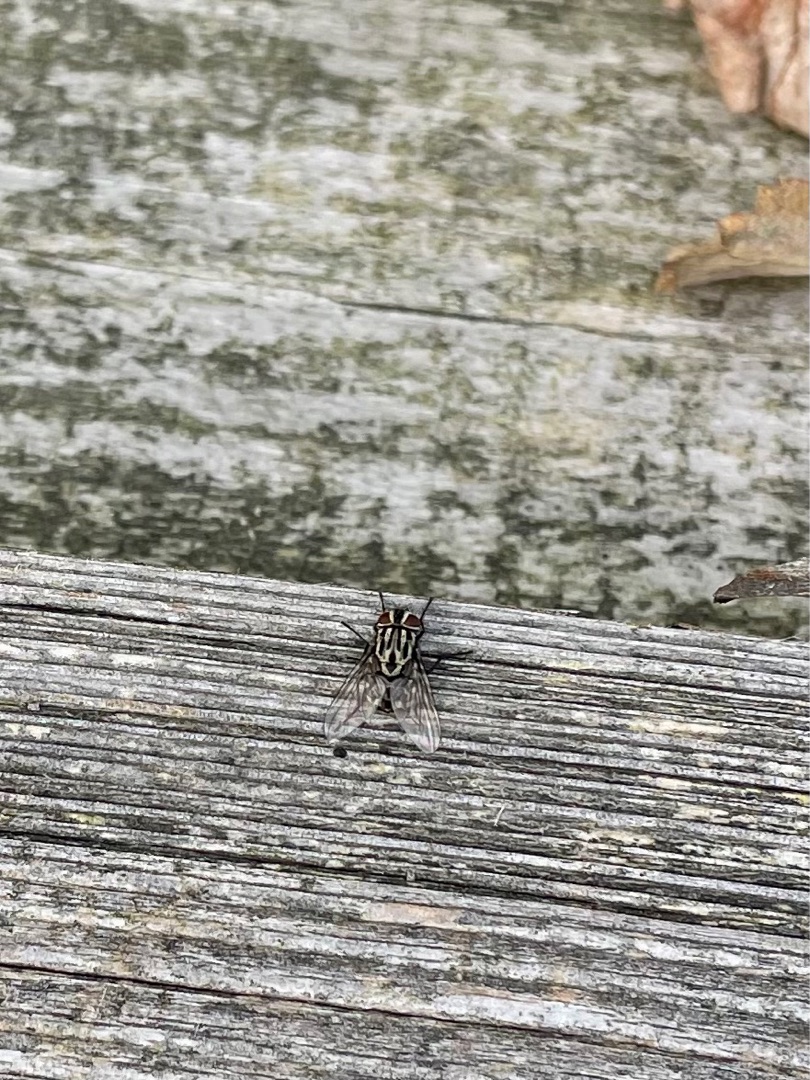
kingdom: Animalia
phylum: Arthropoda
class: Insecta
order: Diptera
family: Muscidae
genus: Graphomya
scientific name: Graphomya maculata
